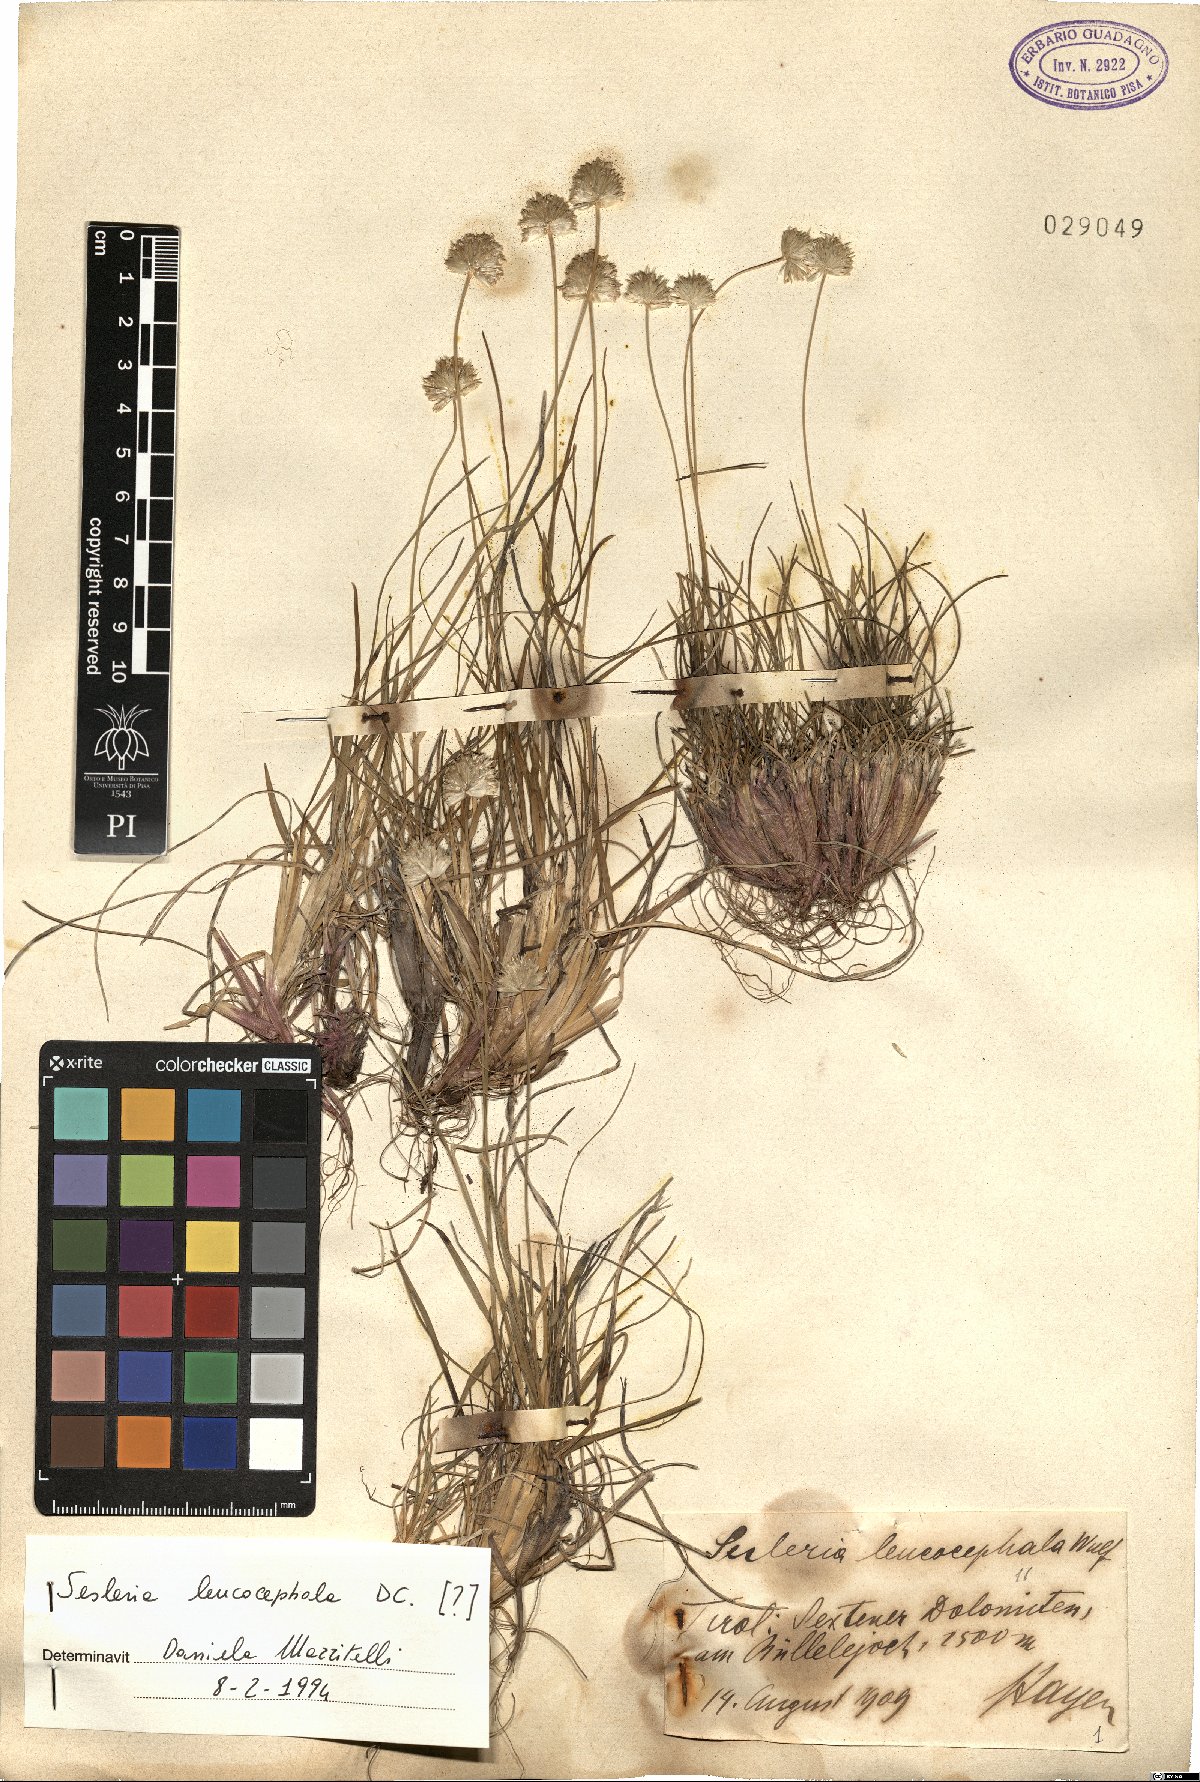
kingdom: Plantae
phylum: Tracheophyta
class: Liliopsida
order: Poales
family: Poaceae
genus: Sesleriella
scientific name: Sesleriella sphaerocephala
